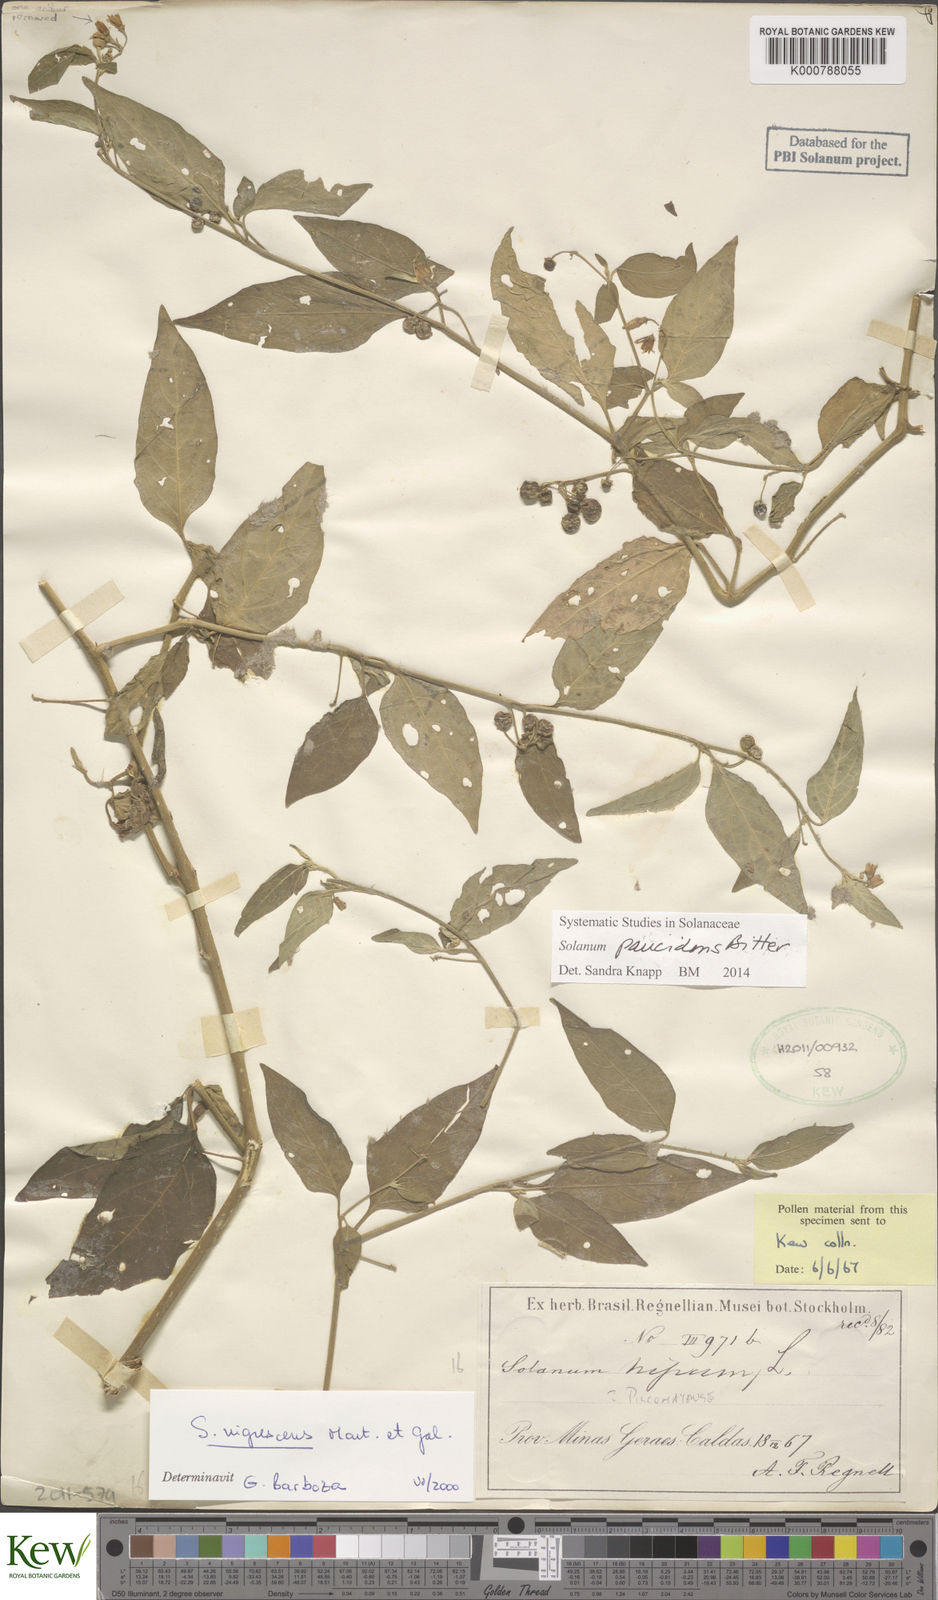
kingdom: Plantae
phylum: Tracheophyta
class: Magnoliopsida
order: Solanales
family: Solanaceae
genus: Solanum
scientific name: Solanum pilcomayense
